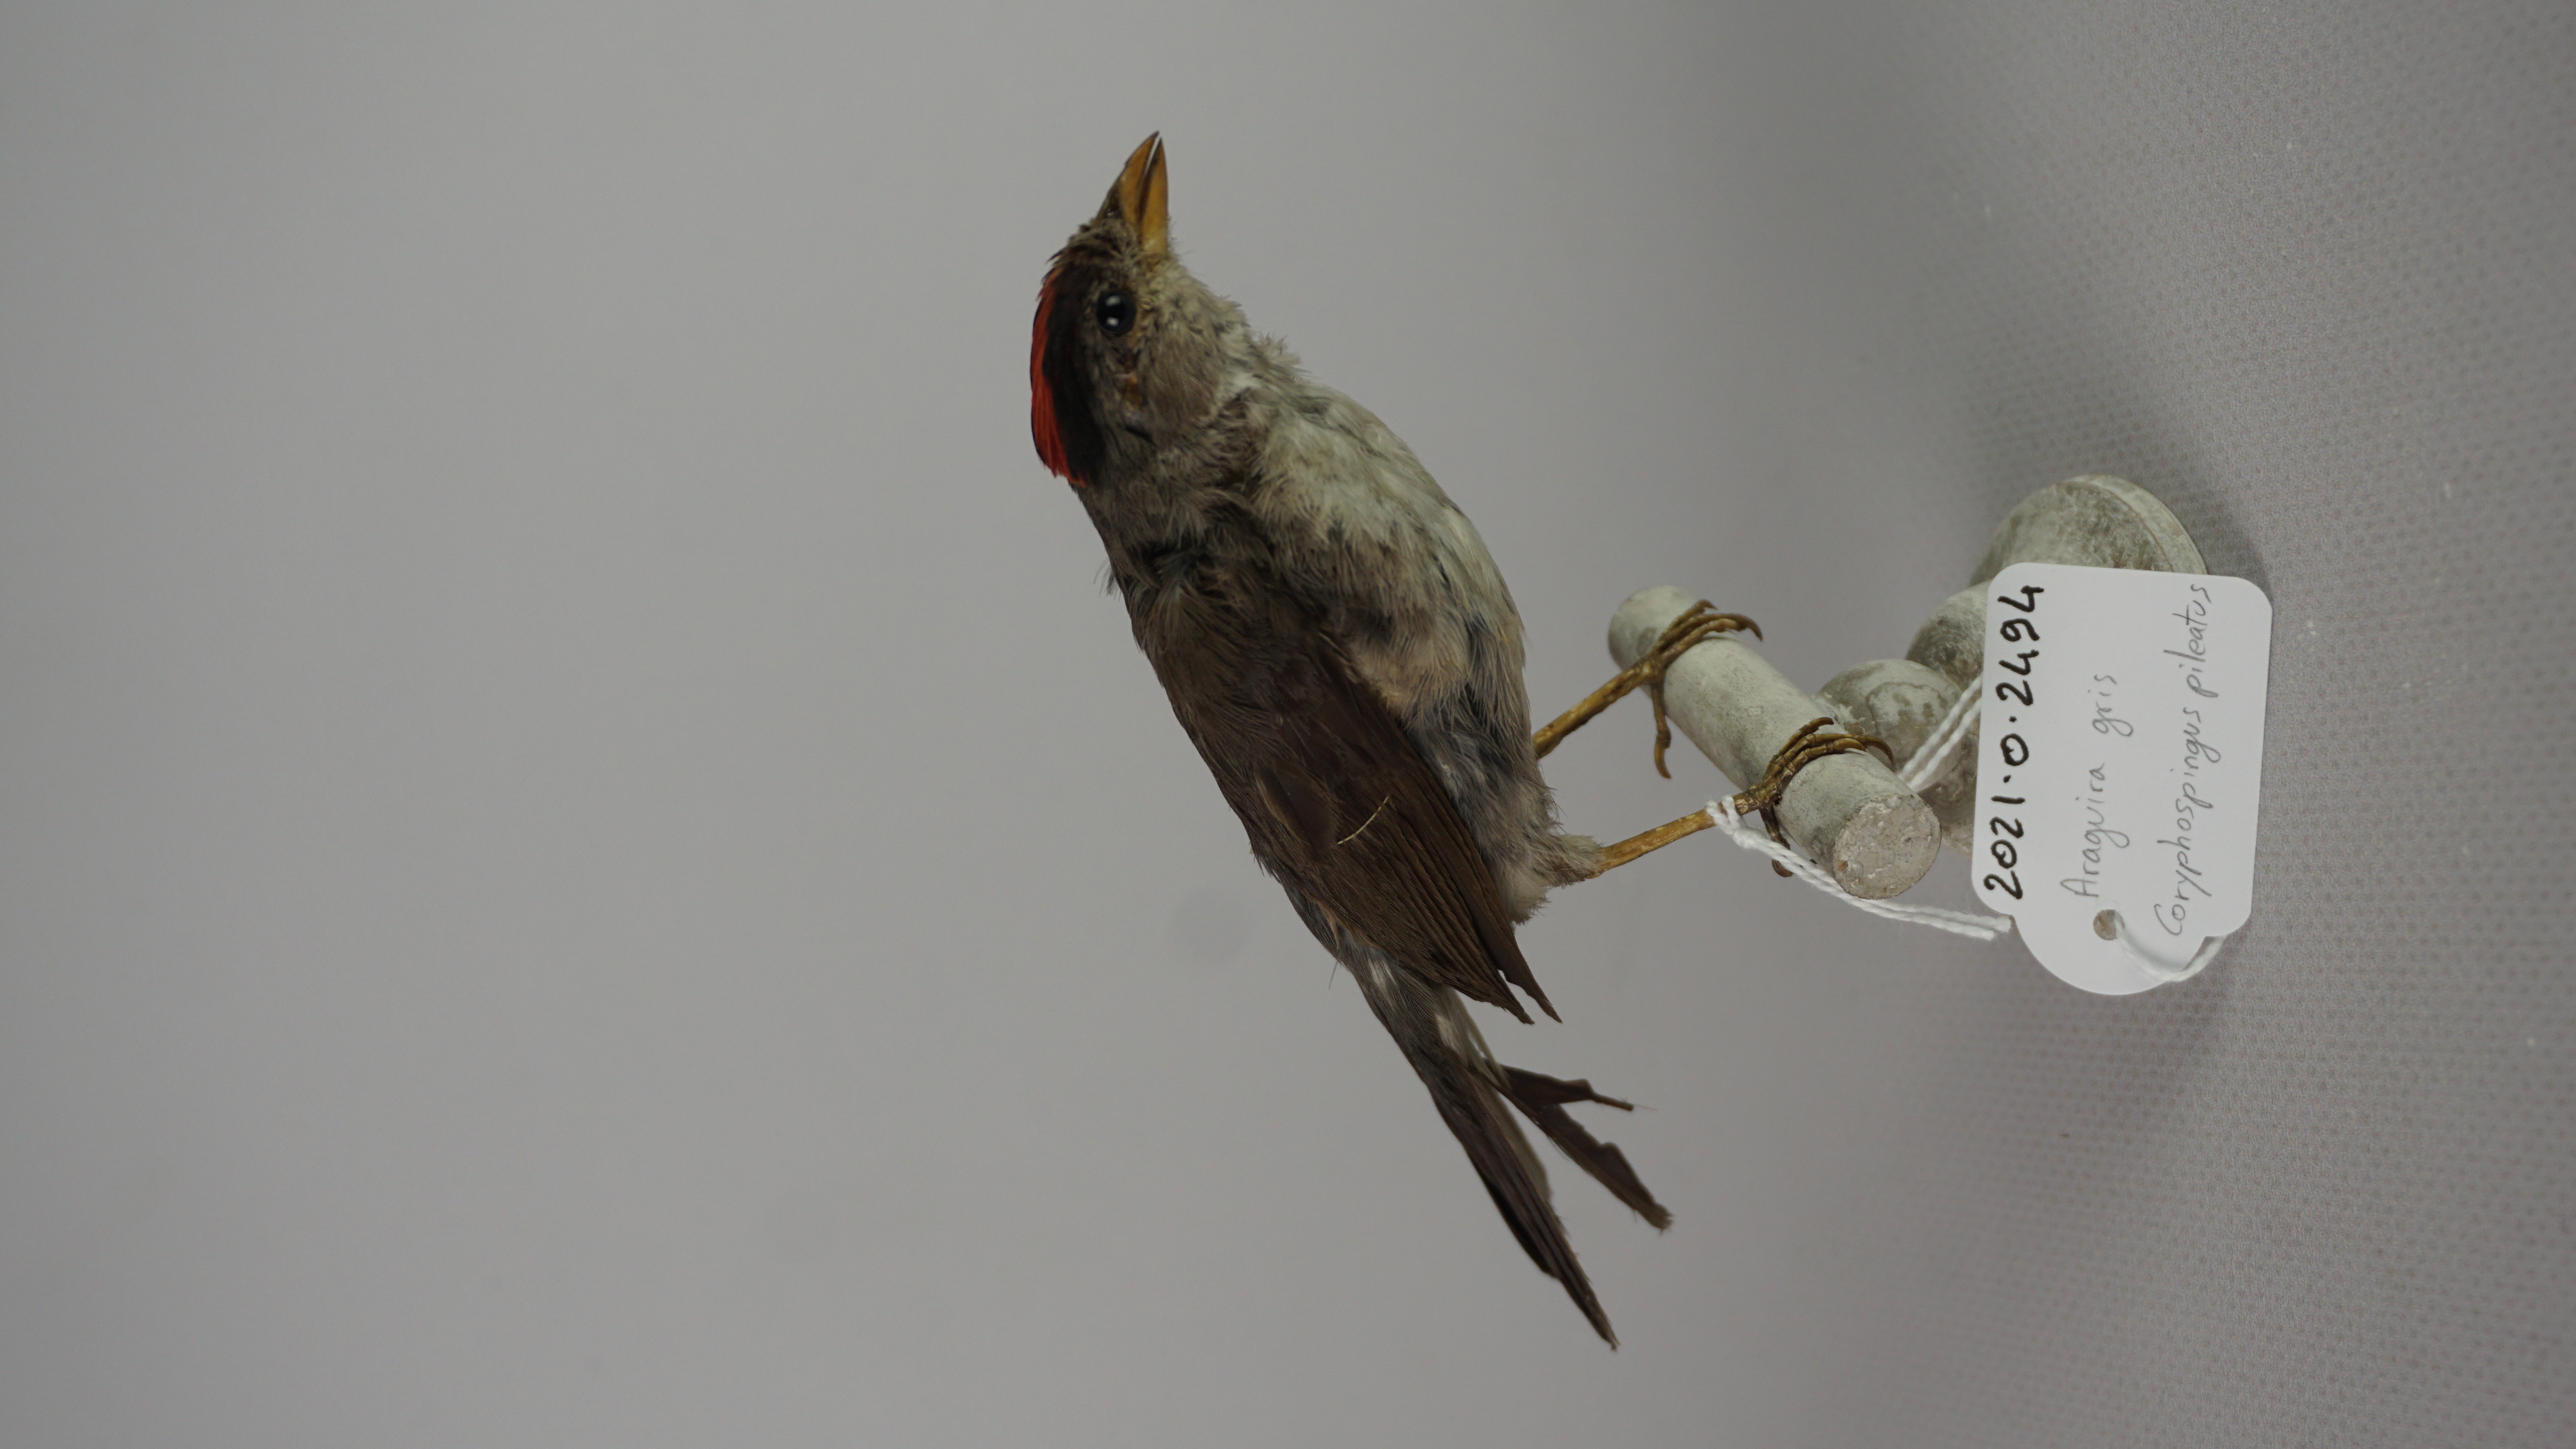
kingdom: Animalia
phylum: Chordata
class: Aves
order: Passeriformes
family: Thraupidae
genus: Coryphospingus
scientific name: Coryphospingus pileatus
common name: Grey pileated finch
